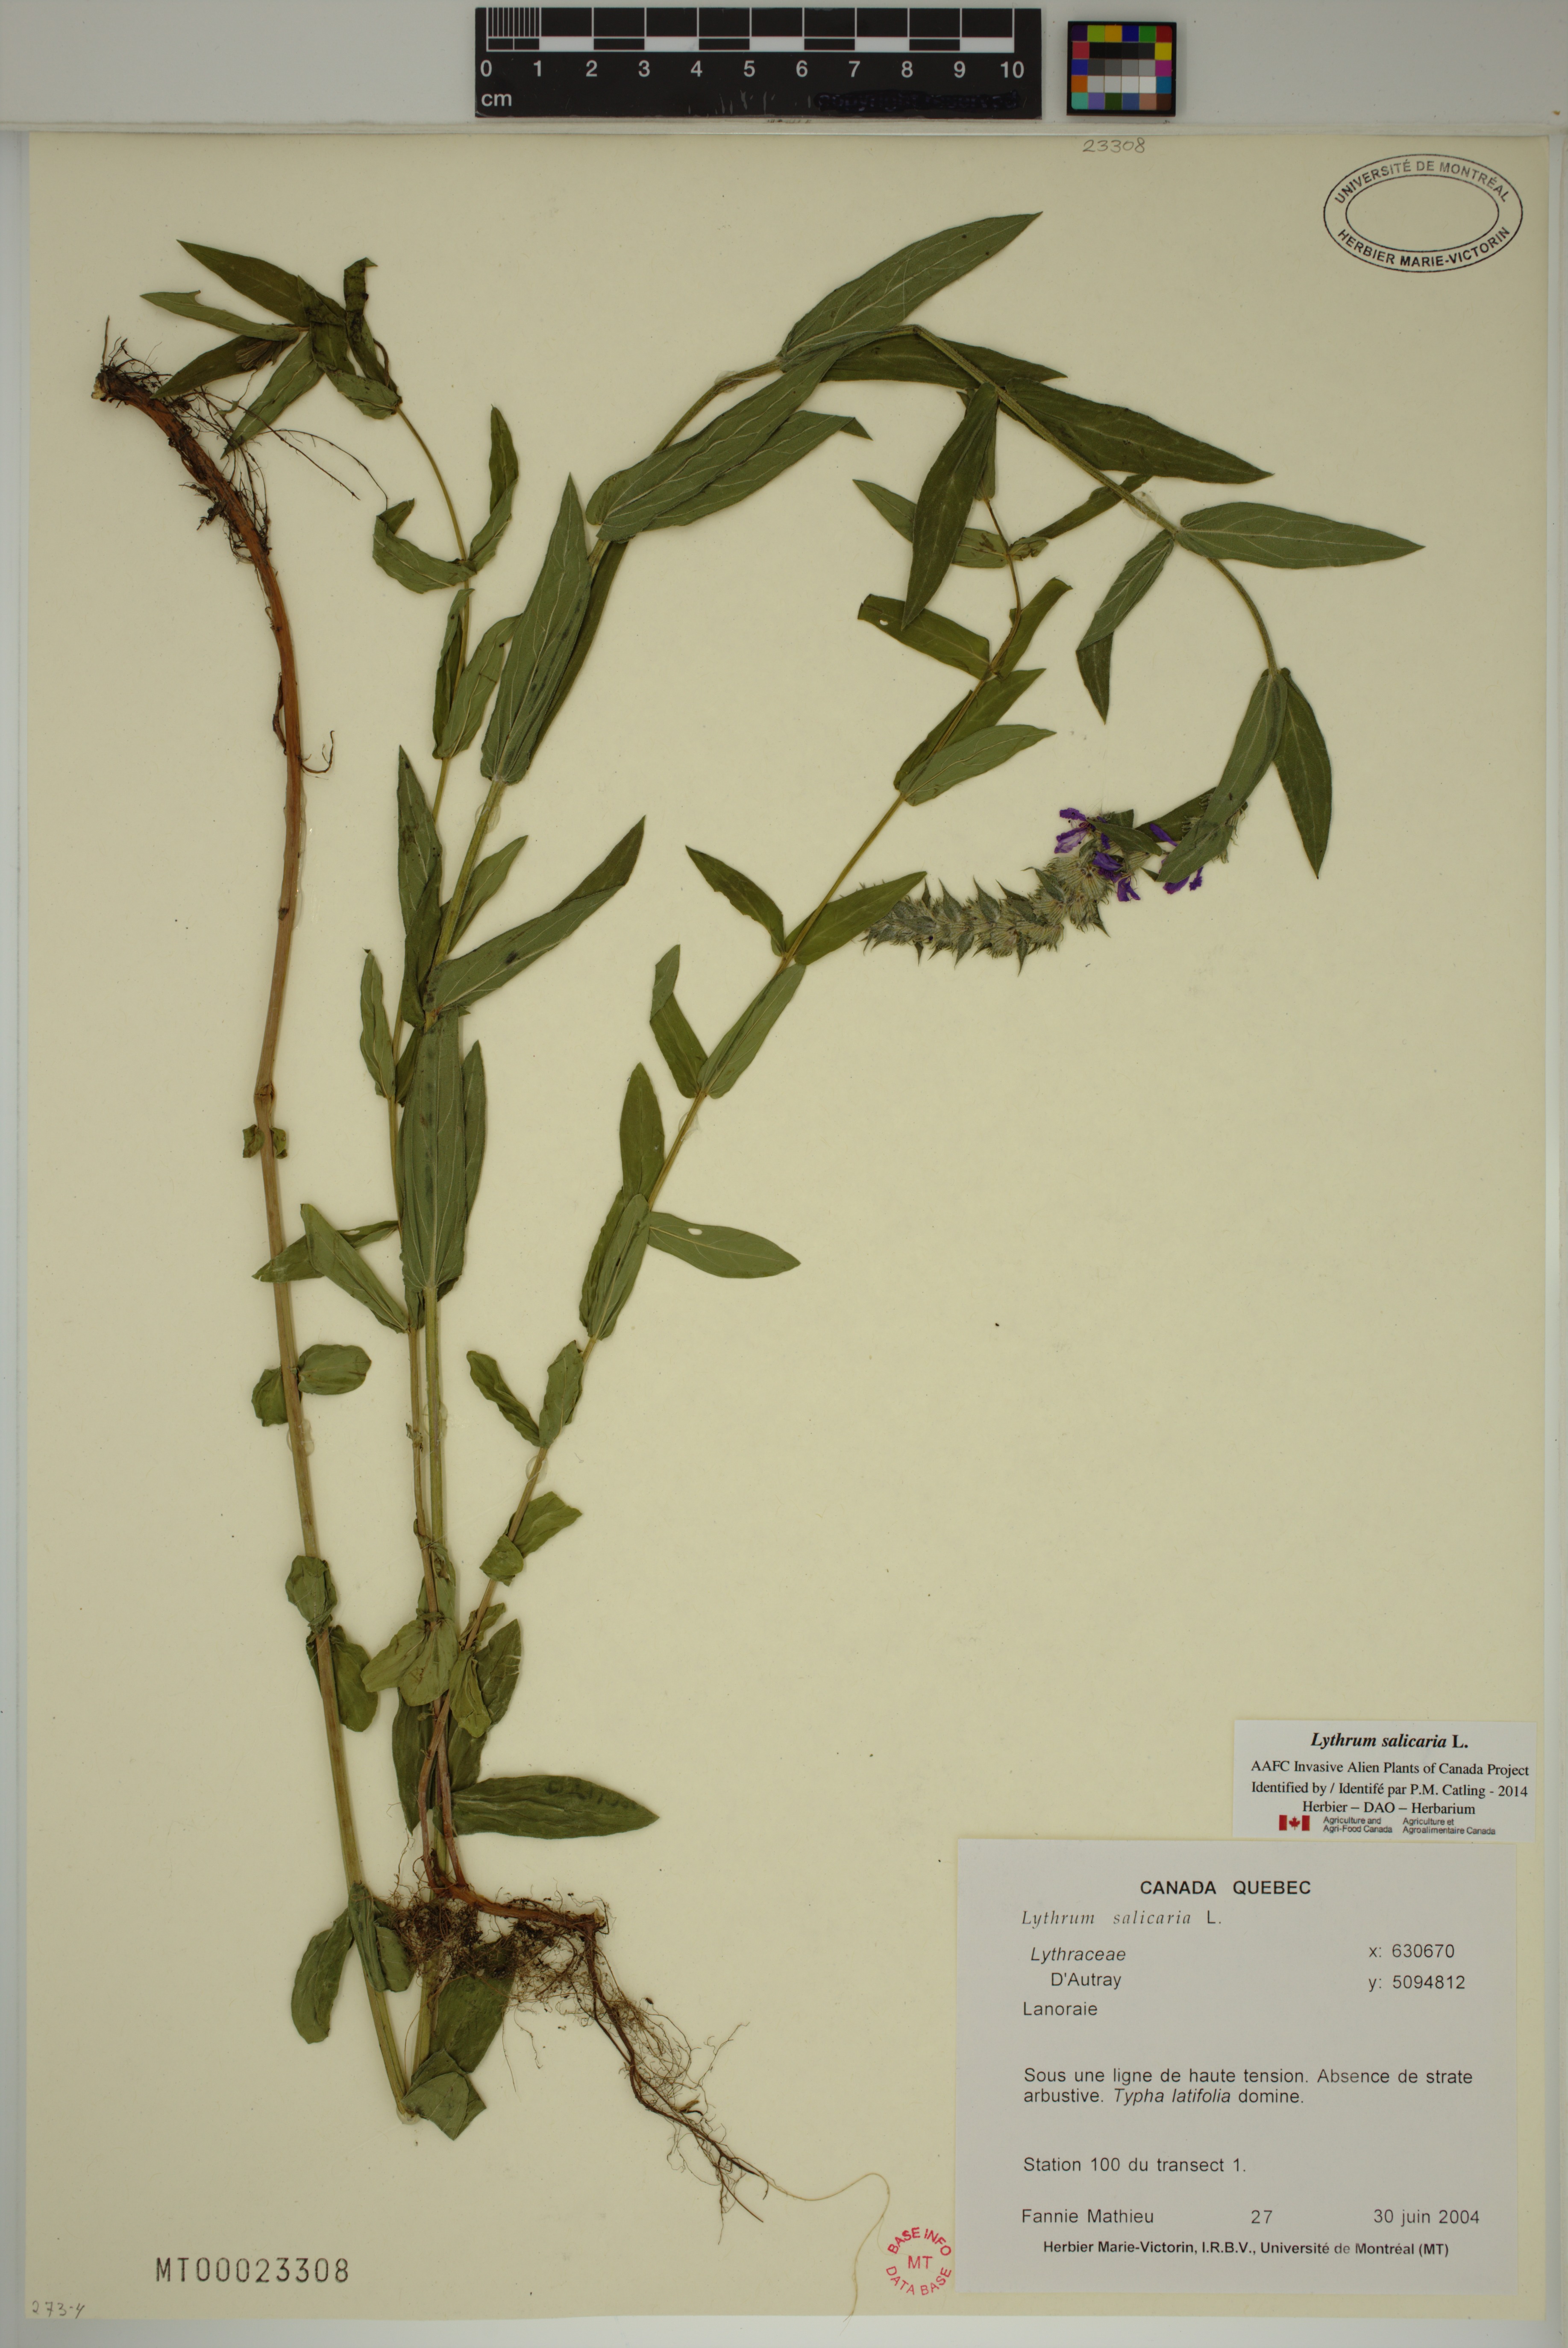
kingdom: Plantae
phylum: Tracheophyta
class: Magnoliopsida
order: Myrtales
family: Lythraceae
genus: Lythrum
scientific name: Lythrum salicaria
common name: Purple loosestrife
